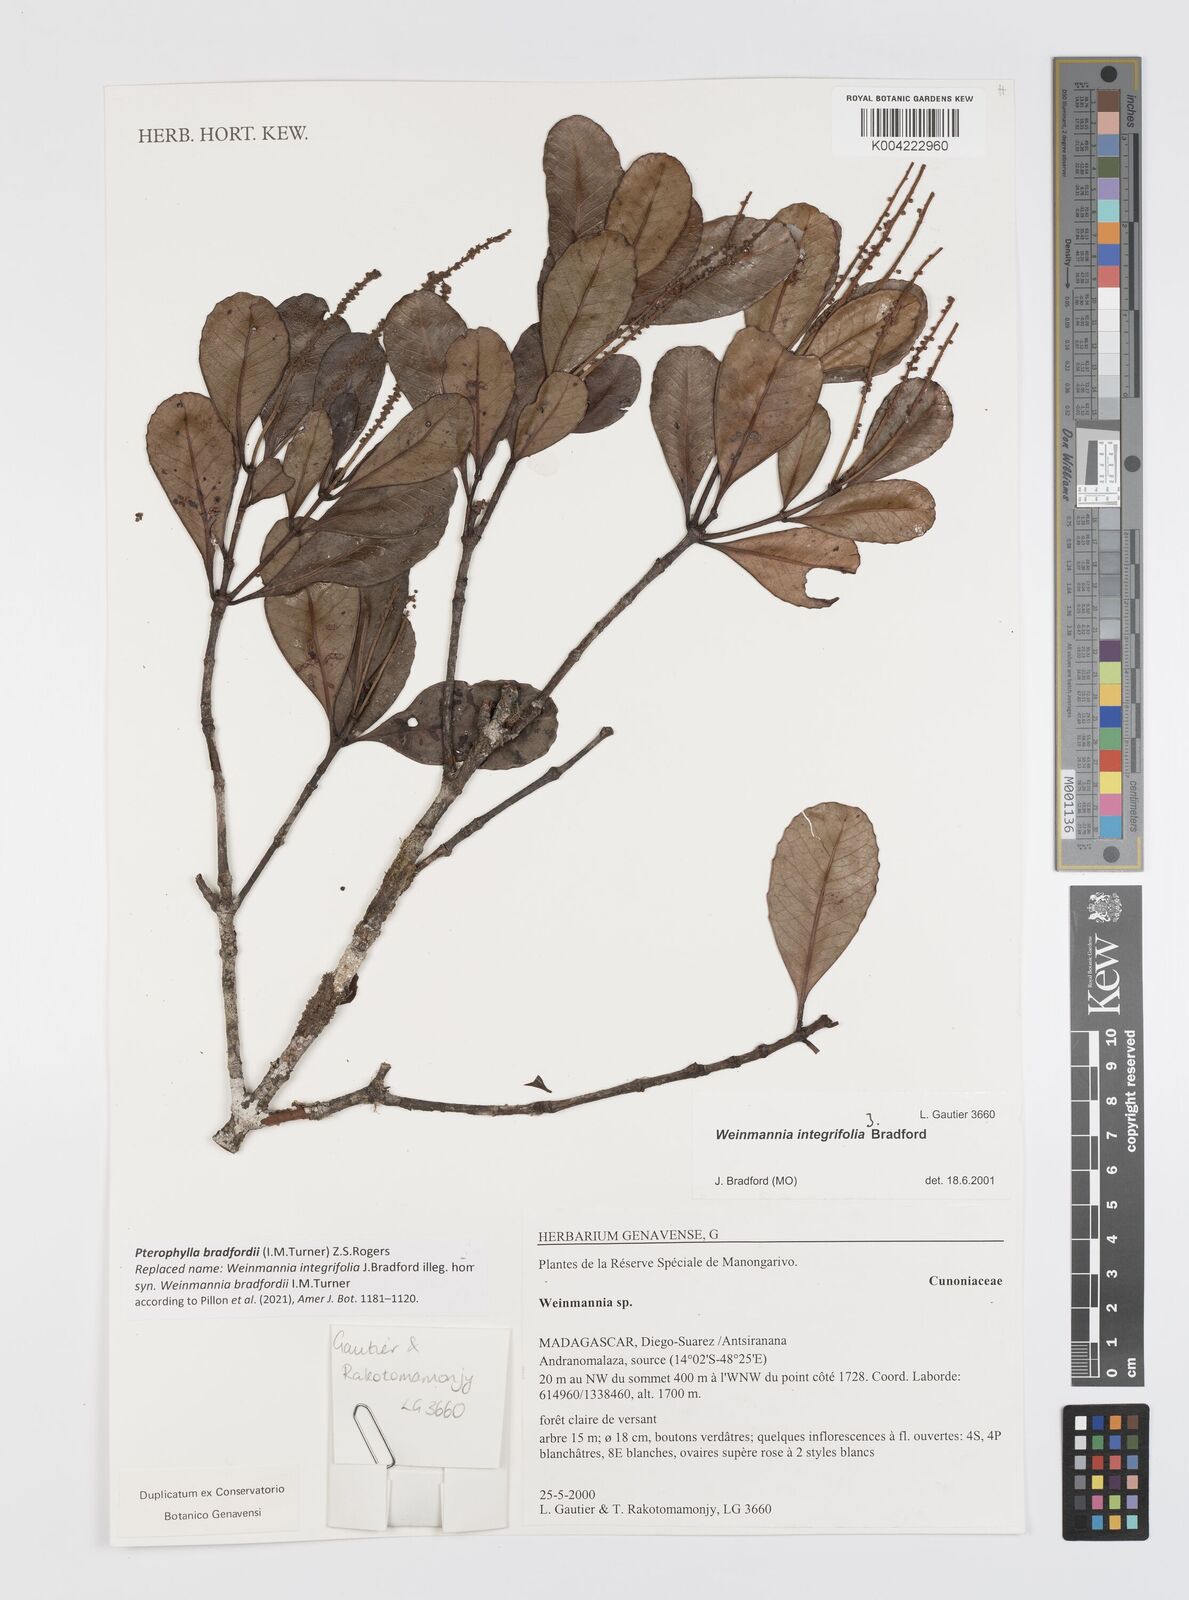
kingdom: Plantae
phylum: Tracheophyta
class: Magnoliopsida
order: Oxalidales
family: Cunoniaceae
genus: Pterophylla
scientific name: Pterophylla bradfordii
